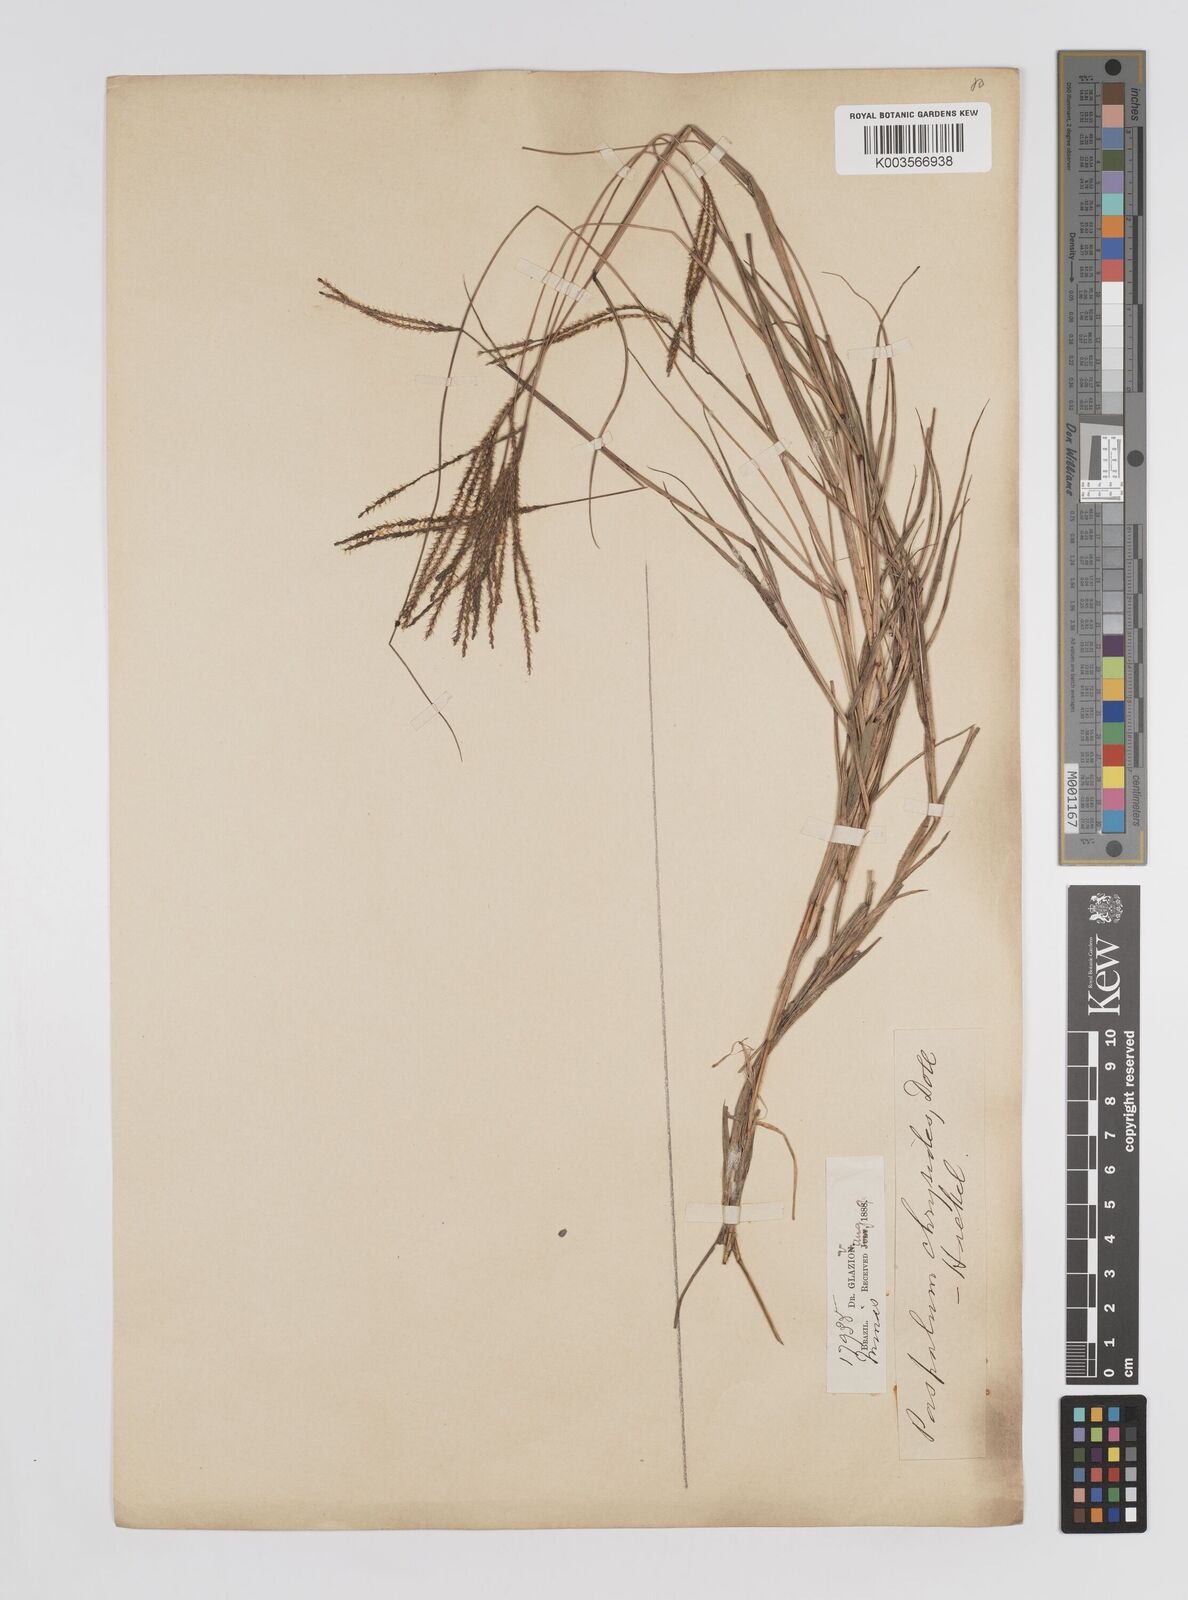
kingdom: Plantae
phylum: Tracheophyta
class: Liliopsida
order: Poales
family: Poaceae
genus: Axonopus
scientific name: Axonopus aureus
